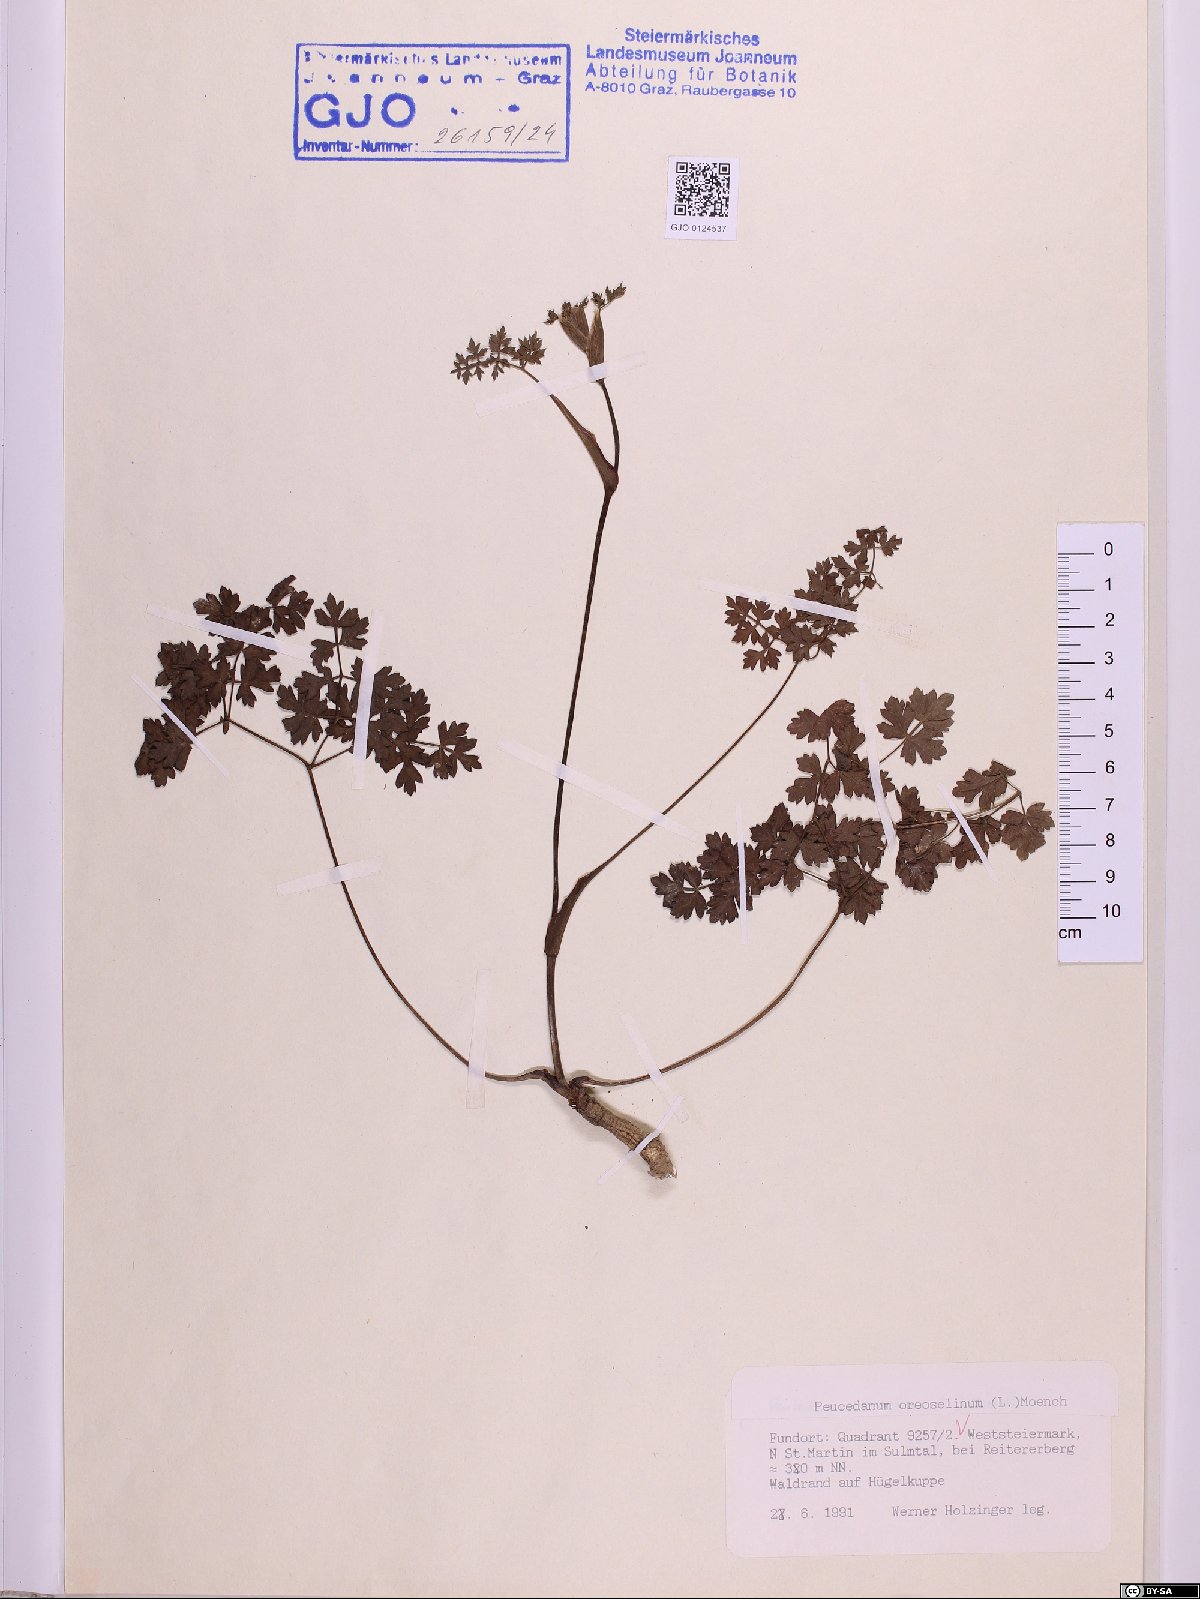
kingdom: Plantae
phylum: Tracheophyta
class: Magnoliopsida
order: Apiales
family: Apiaceae
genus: Oreoselinum
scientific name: Oreoselinum nigrum
